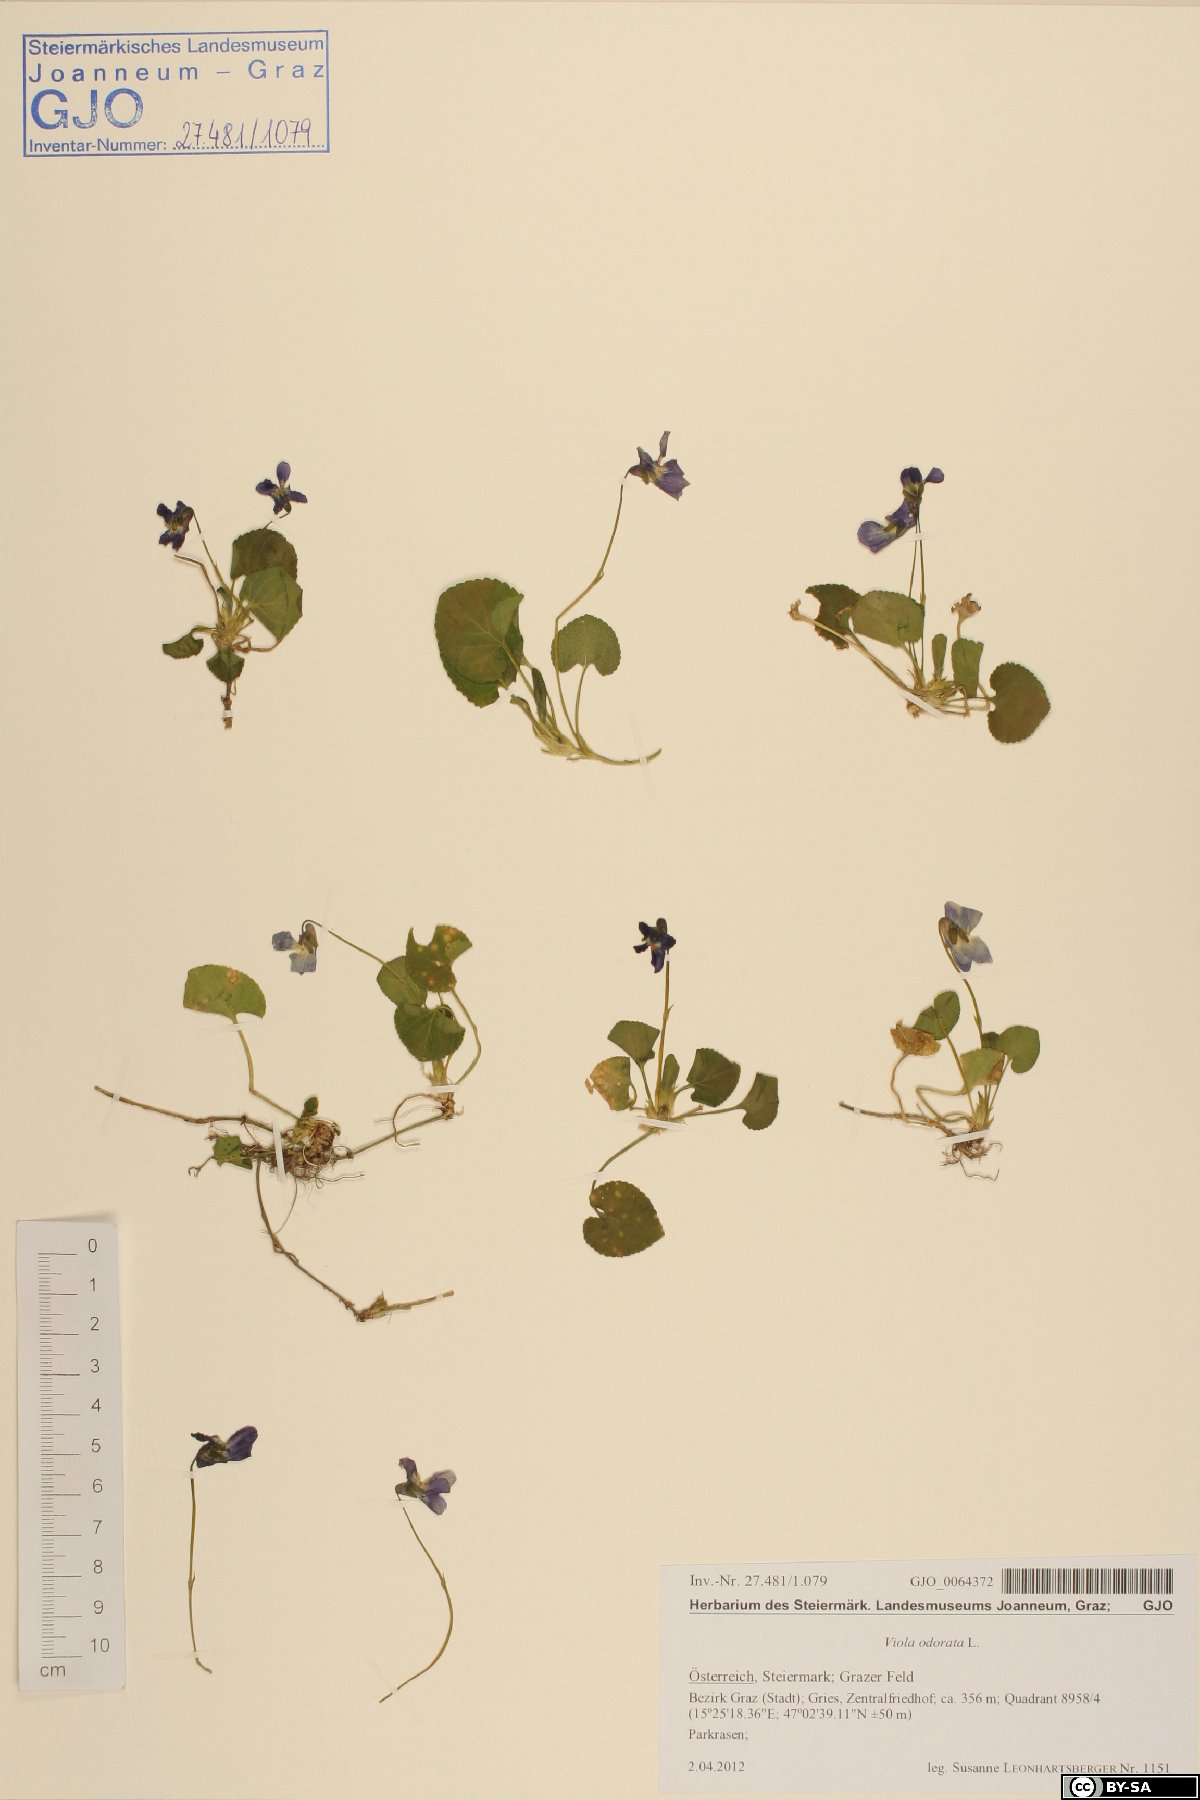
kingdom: Plantae
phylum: Tracheophyta
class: Magnoliopsida
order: Malpighiales
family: Violaceae
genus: Viola
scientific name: Viola odorata
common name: Sweet violet
